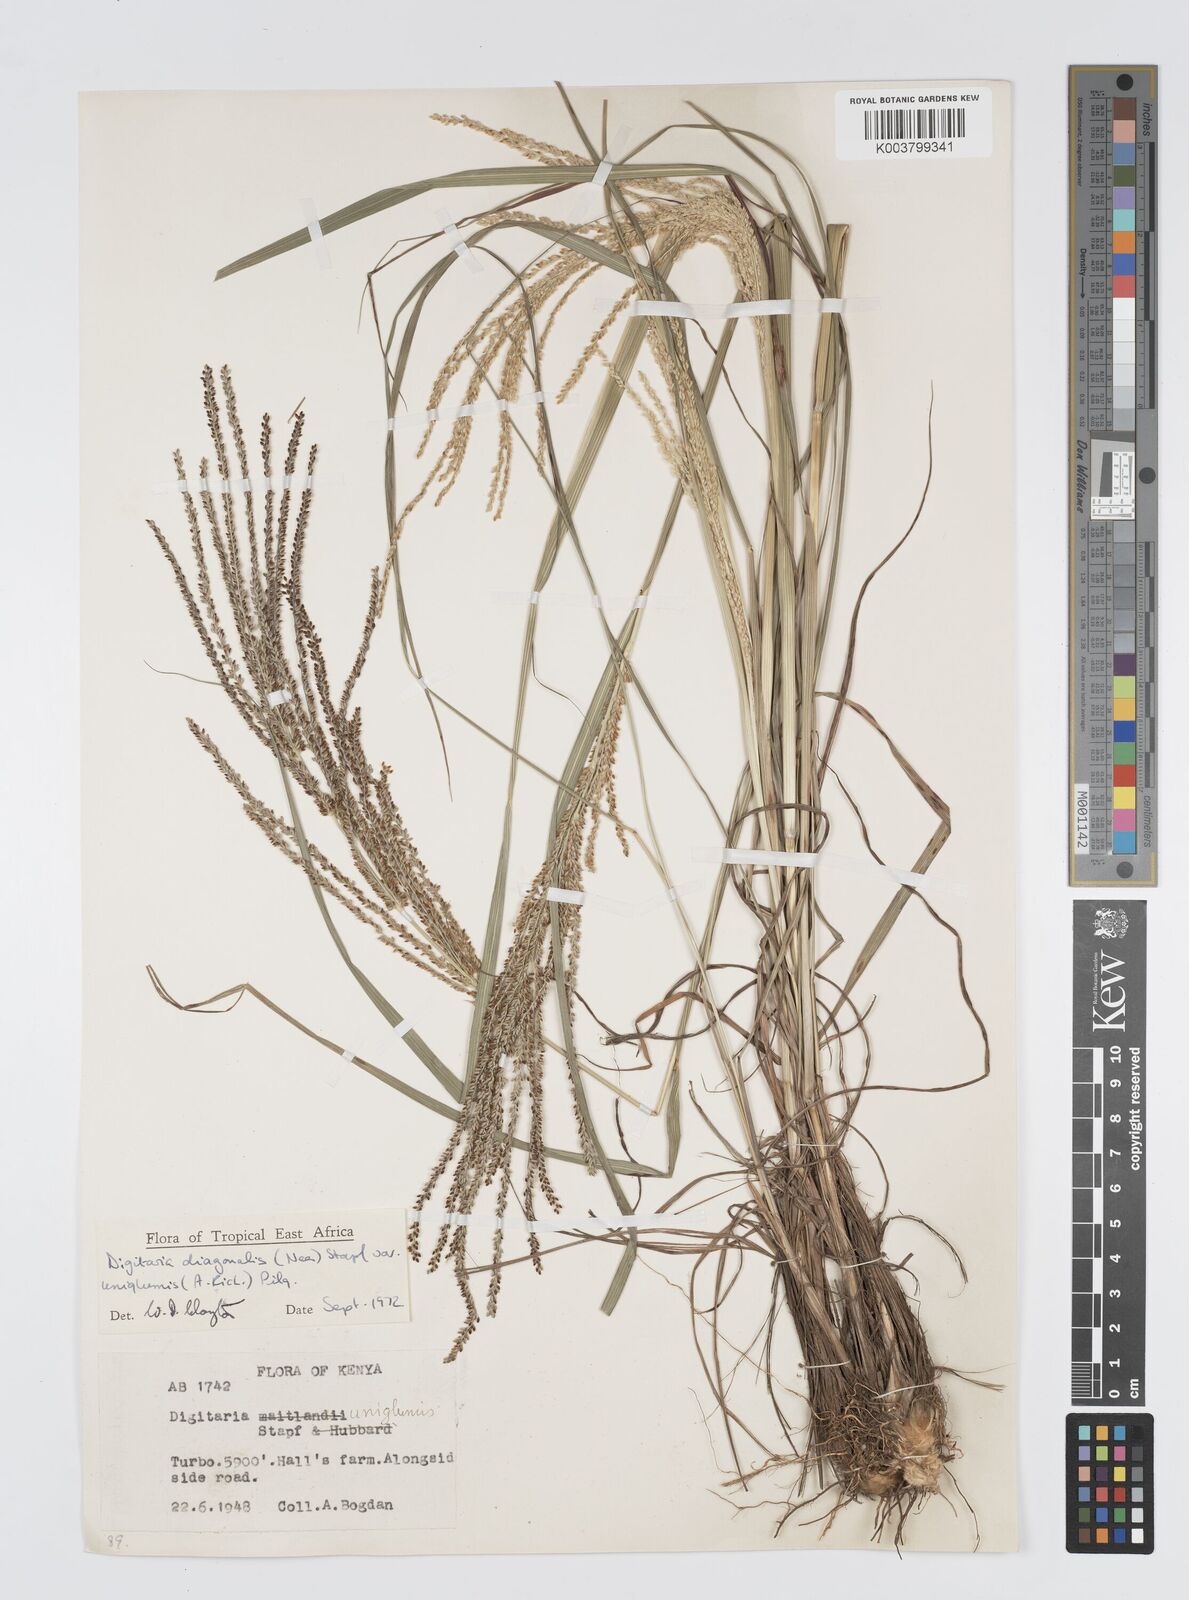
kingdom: Plantae
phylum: Tracheophyta
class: Liliopsida
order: Poales
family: Poaceae
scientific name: Poaceae
